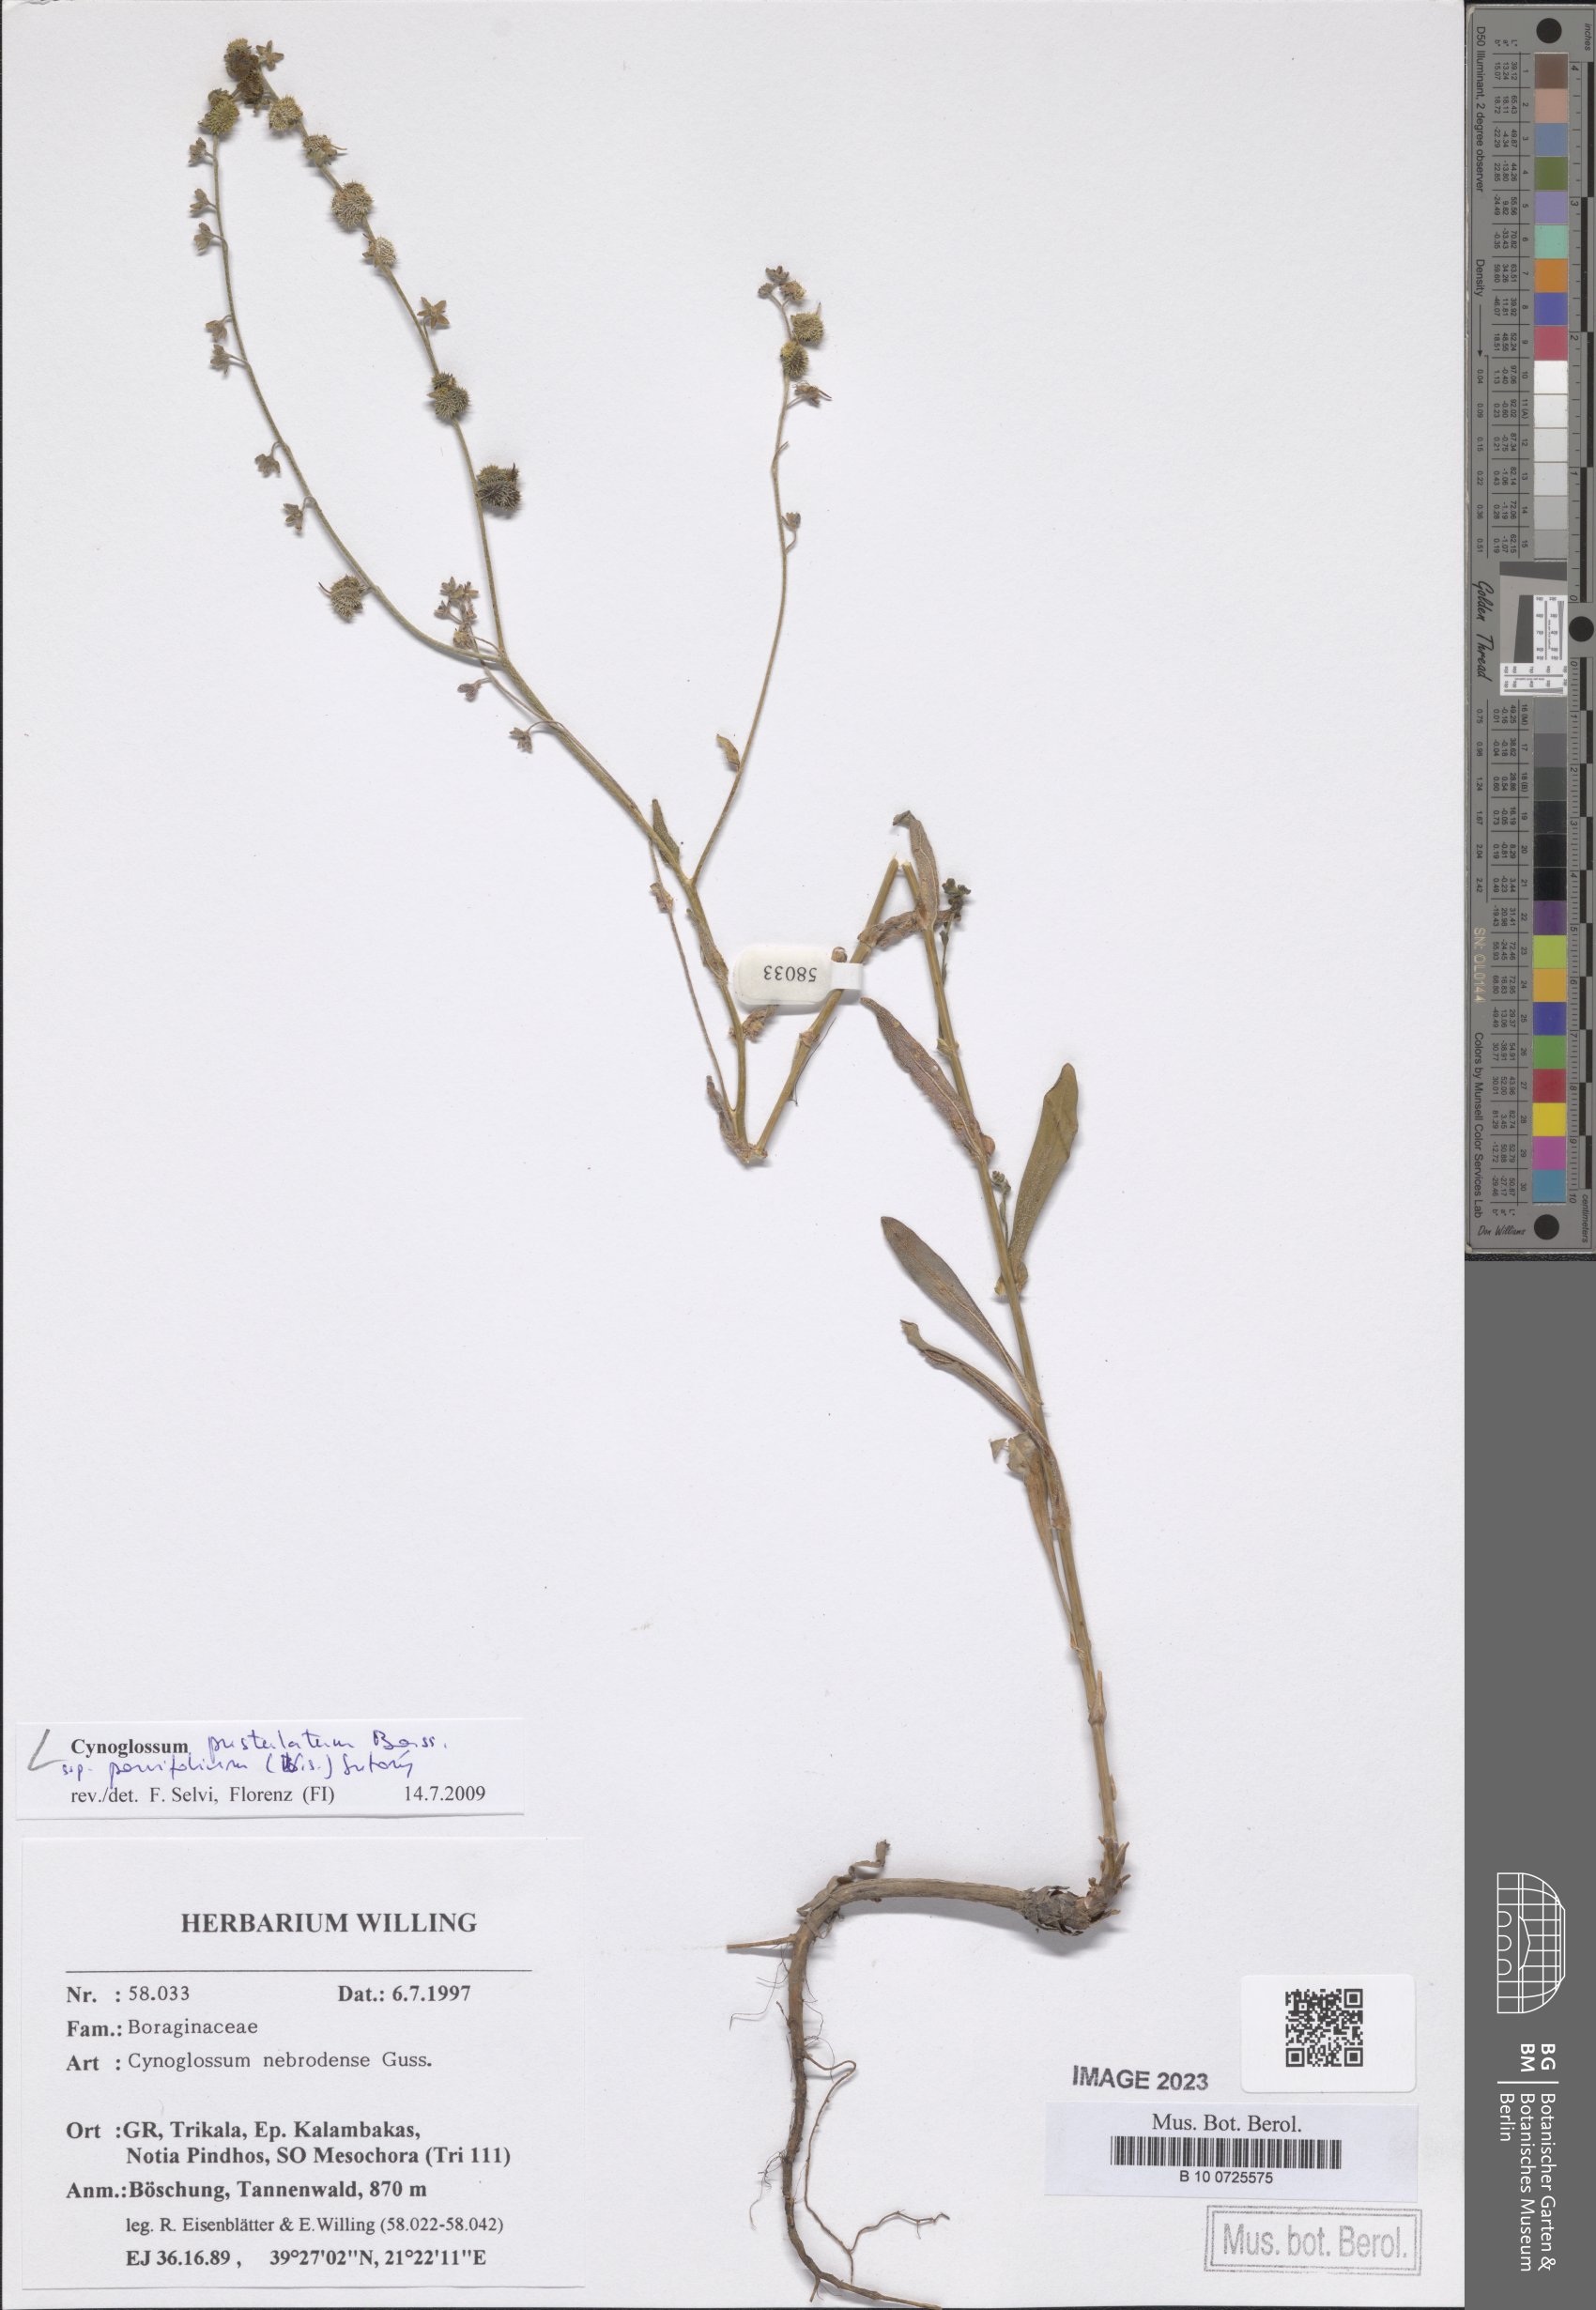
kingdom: Plantae
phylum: Tracheophyta
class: Magnoliopsida
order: Boraginales
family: Boraginaceae
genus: Cynoglossum
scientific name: Cynoglossum pustulatum
